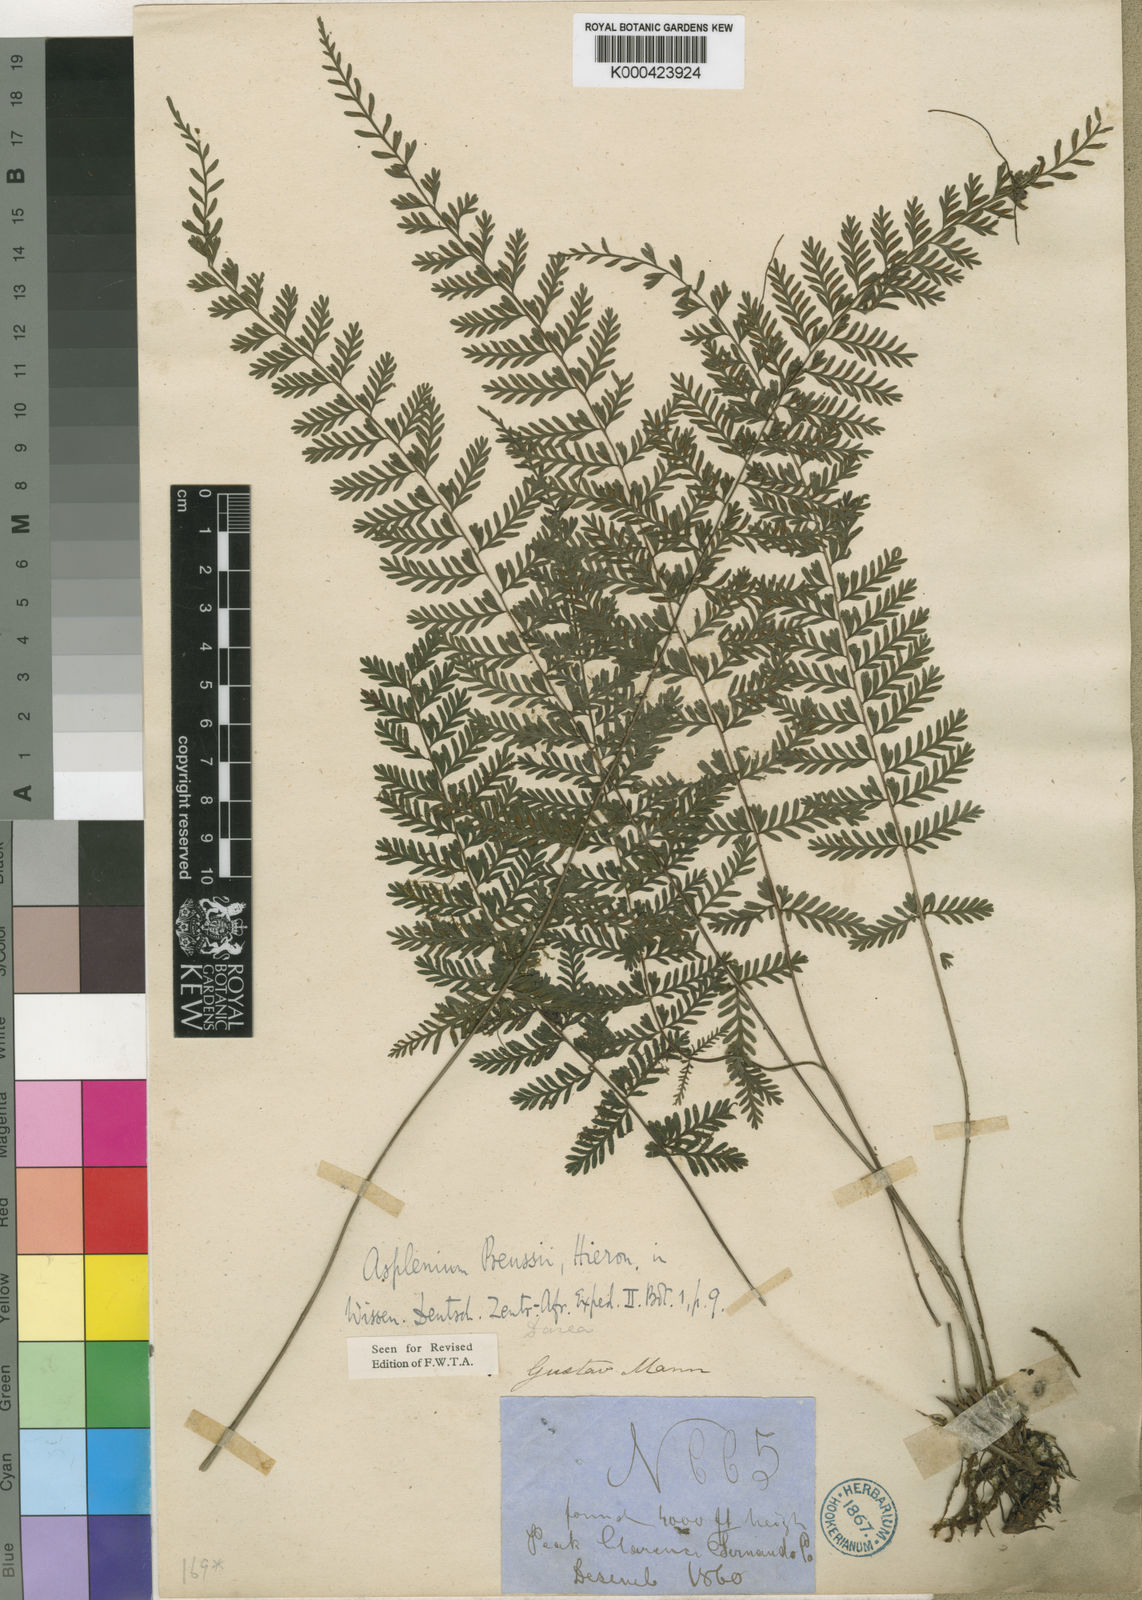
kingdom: Plantae
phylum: Tracheophyta
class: Polypodiopsida
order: Polypodiales
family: Aspleniaceae
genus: Asplenium
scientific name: Asplenium
